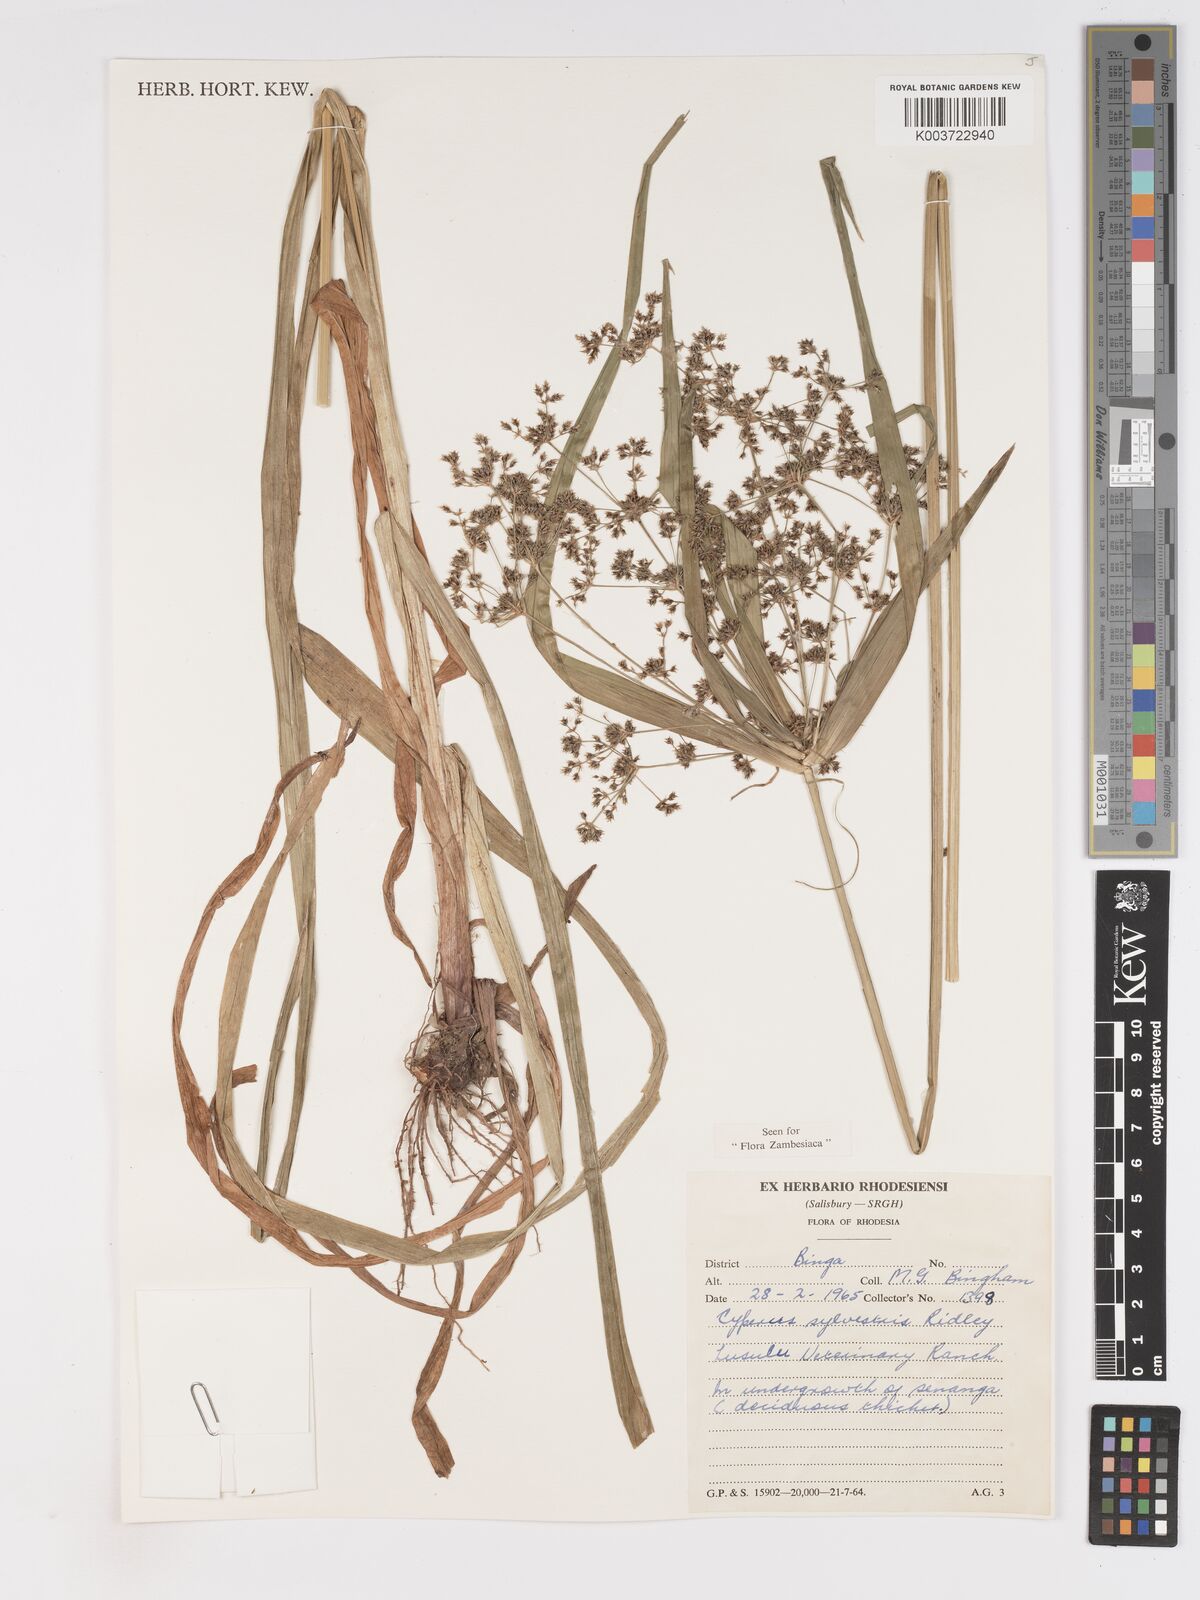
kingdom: Plantae
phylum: Tracheophyta
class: Liliopsida
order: Poales
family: Cyperaceae
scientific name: Cyperaceae
